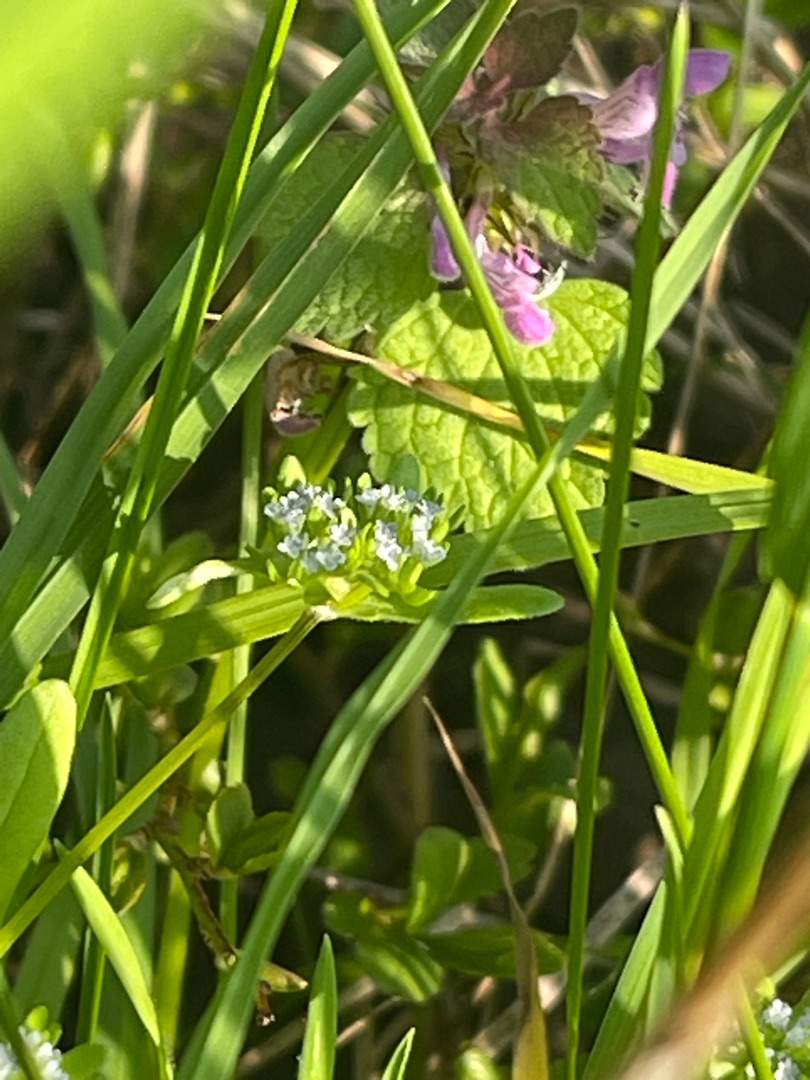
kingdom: Plantae
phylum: Tracheophyta
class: Magnoliopsida
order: Dipsacales
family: Caprifoliaceae
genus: Valerianella
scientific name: Valerianella locusta
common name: Tandfri vårsalat
